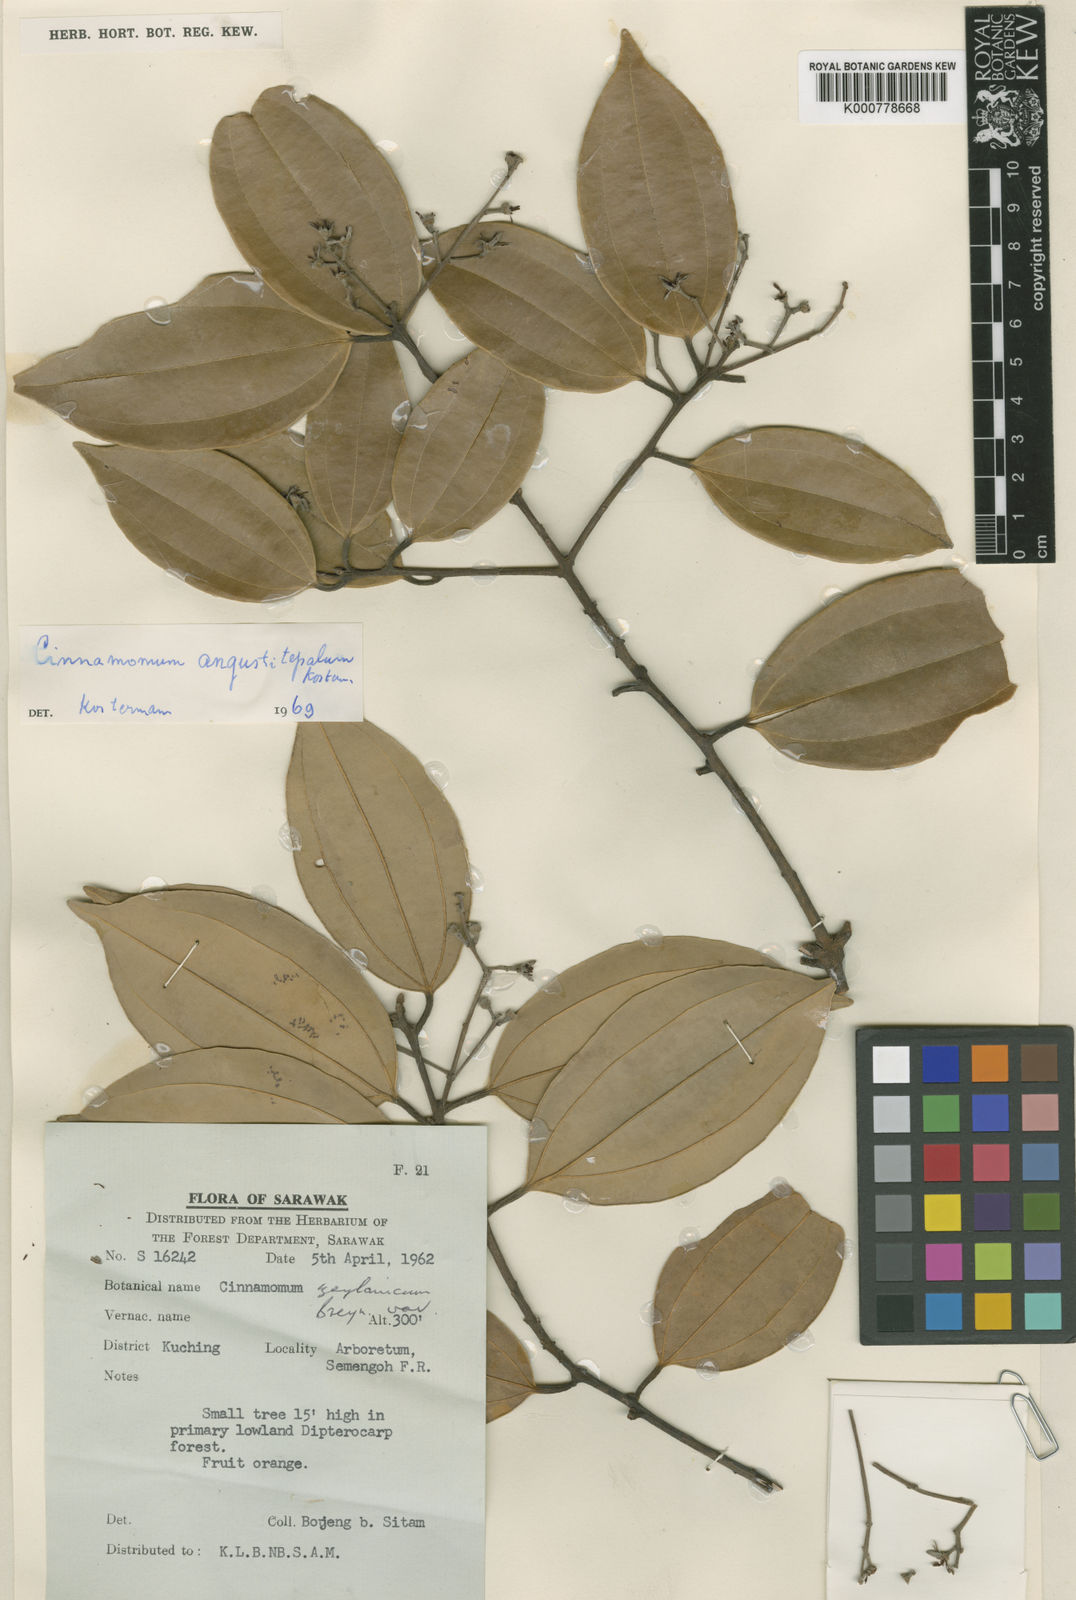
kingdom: Plantae
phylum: Tracheophyta
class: Magnoliopsida
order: Laurales
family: Lauraceae
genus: Cinnamomum
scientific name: Cinnamomum angustitepalum
